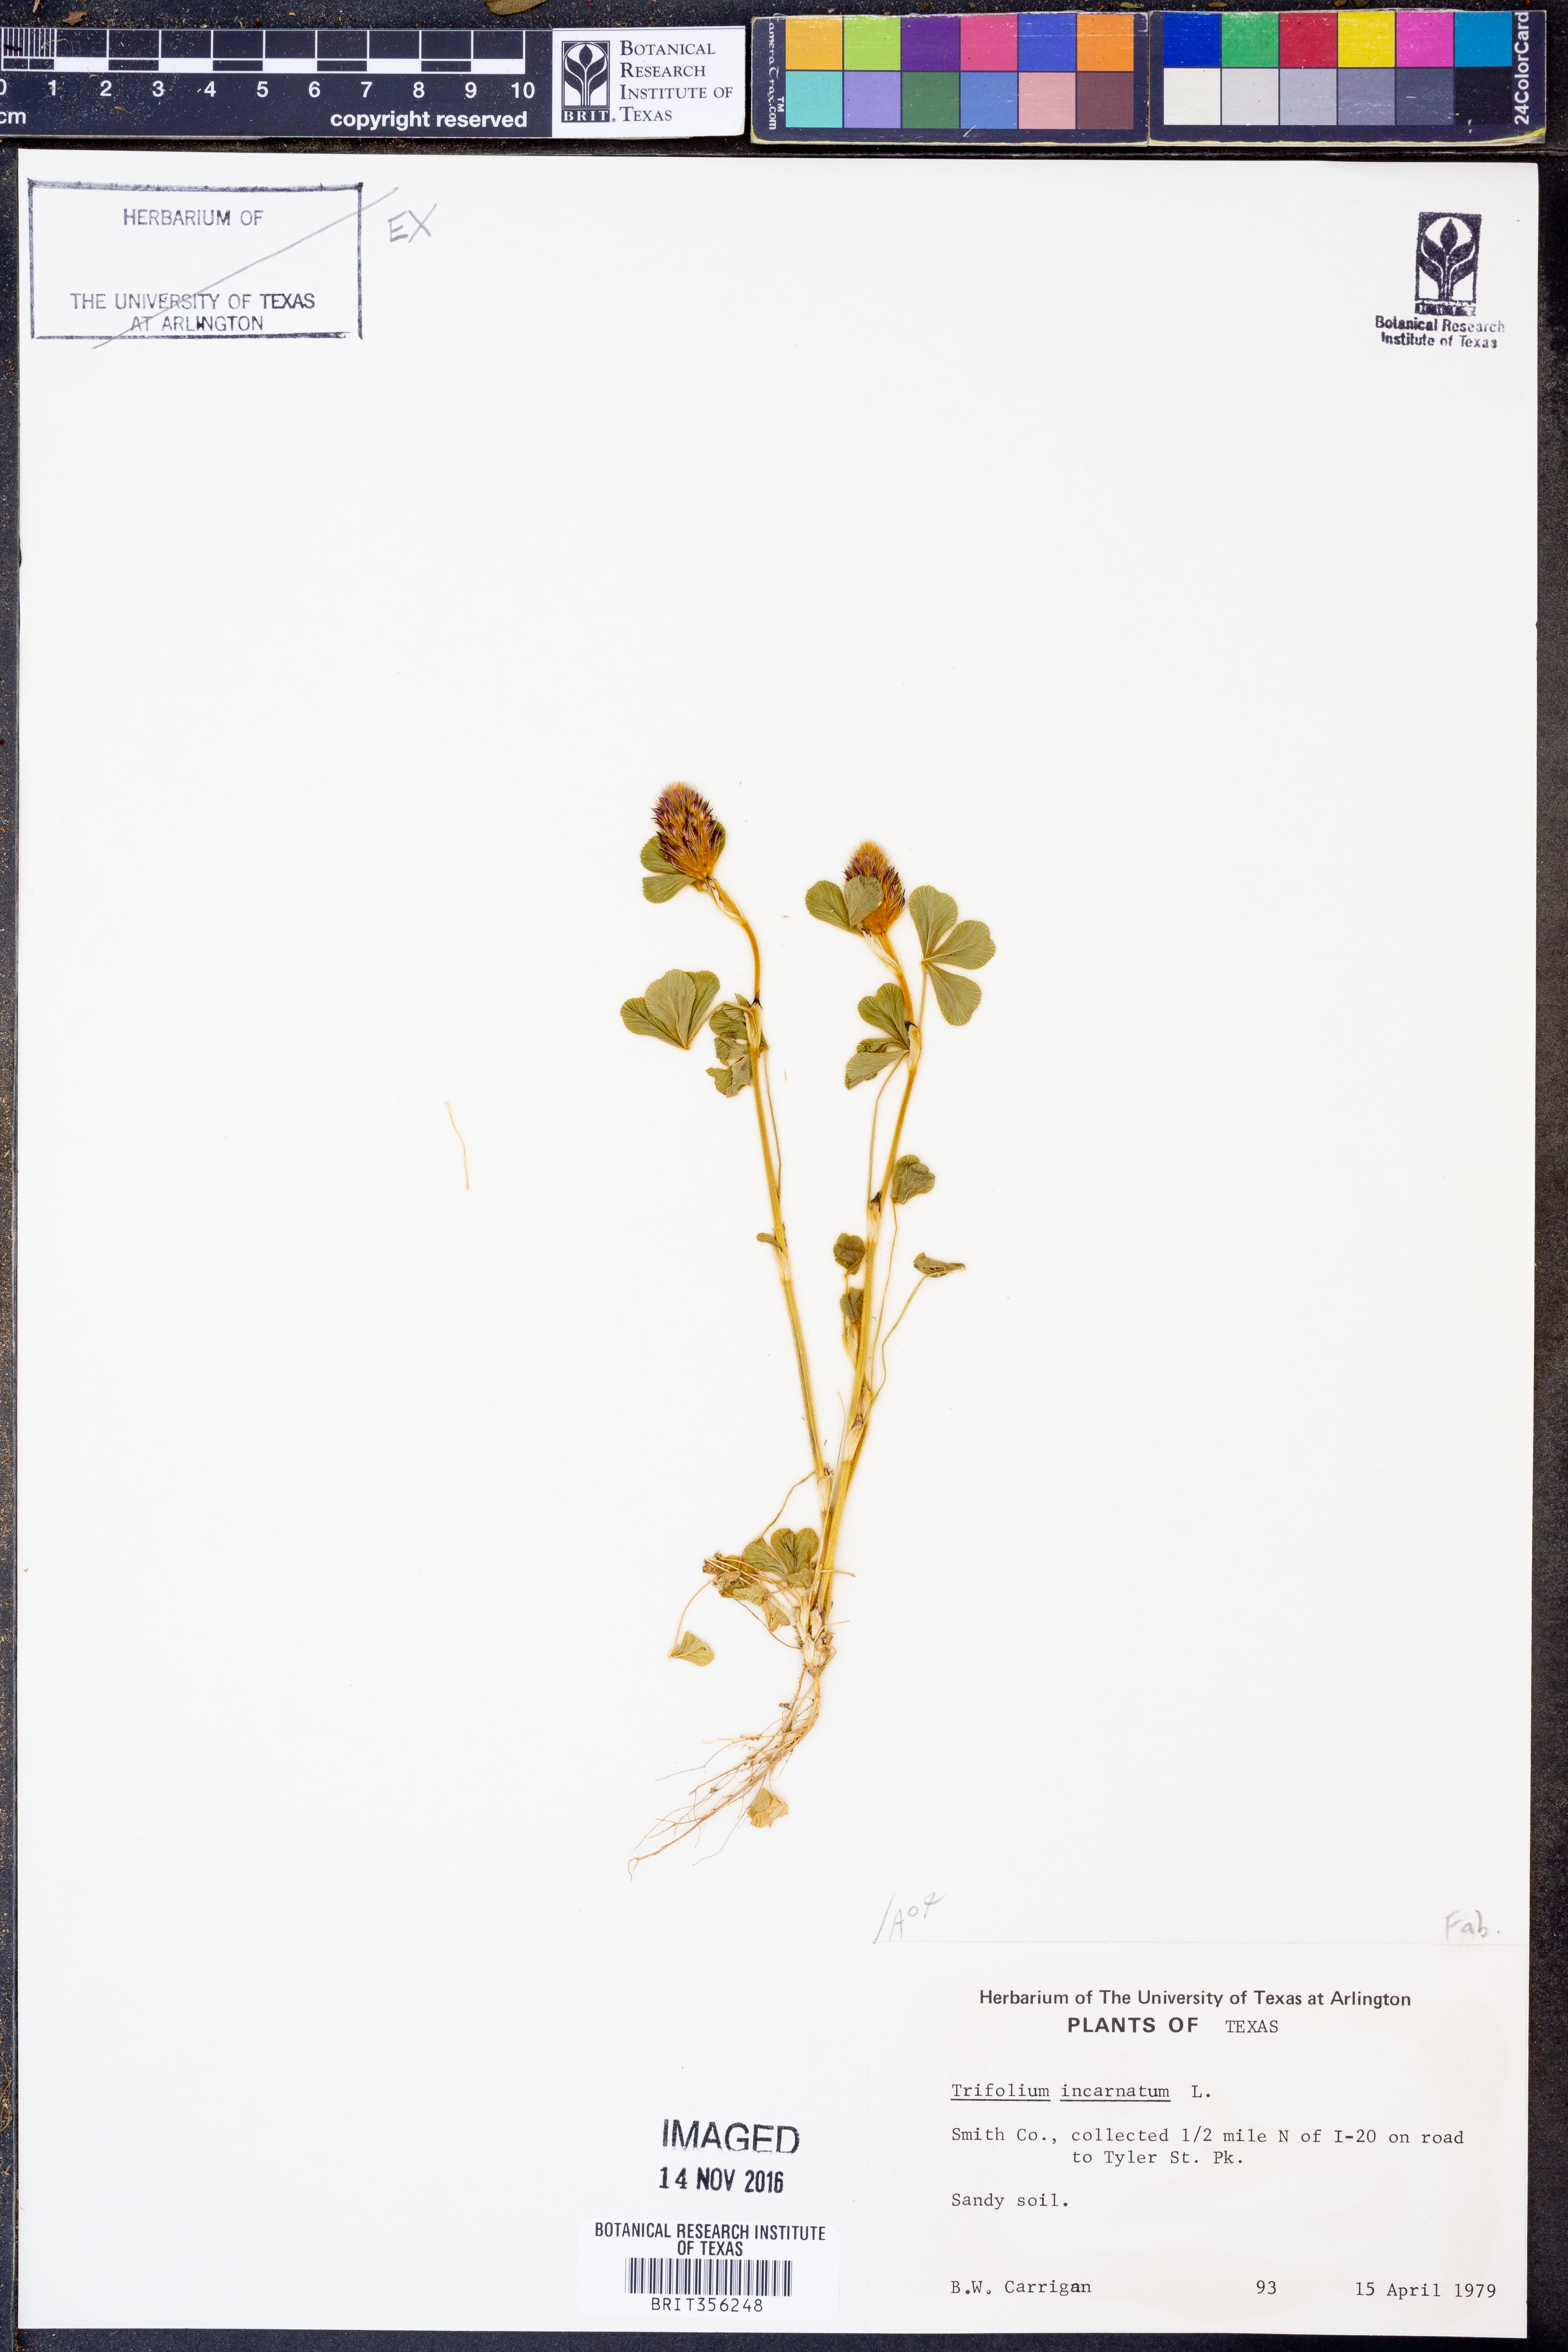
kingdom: Plantae
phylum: Tracheophyta
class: Magnoliopsida
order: Fabales
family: Fabaceae
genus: Trifolium
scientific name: Trifolium incarnatum
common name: Crimson clover
